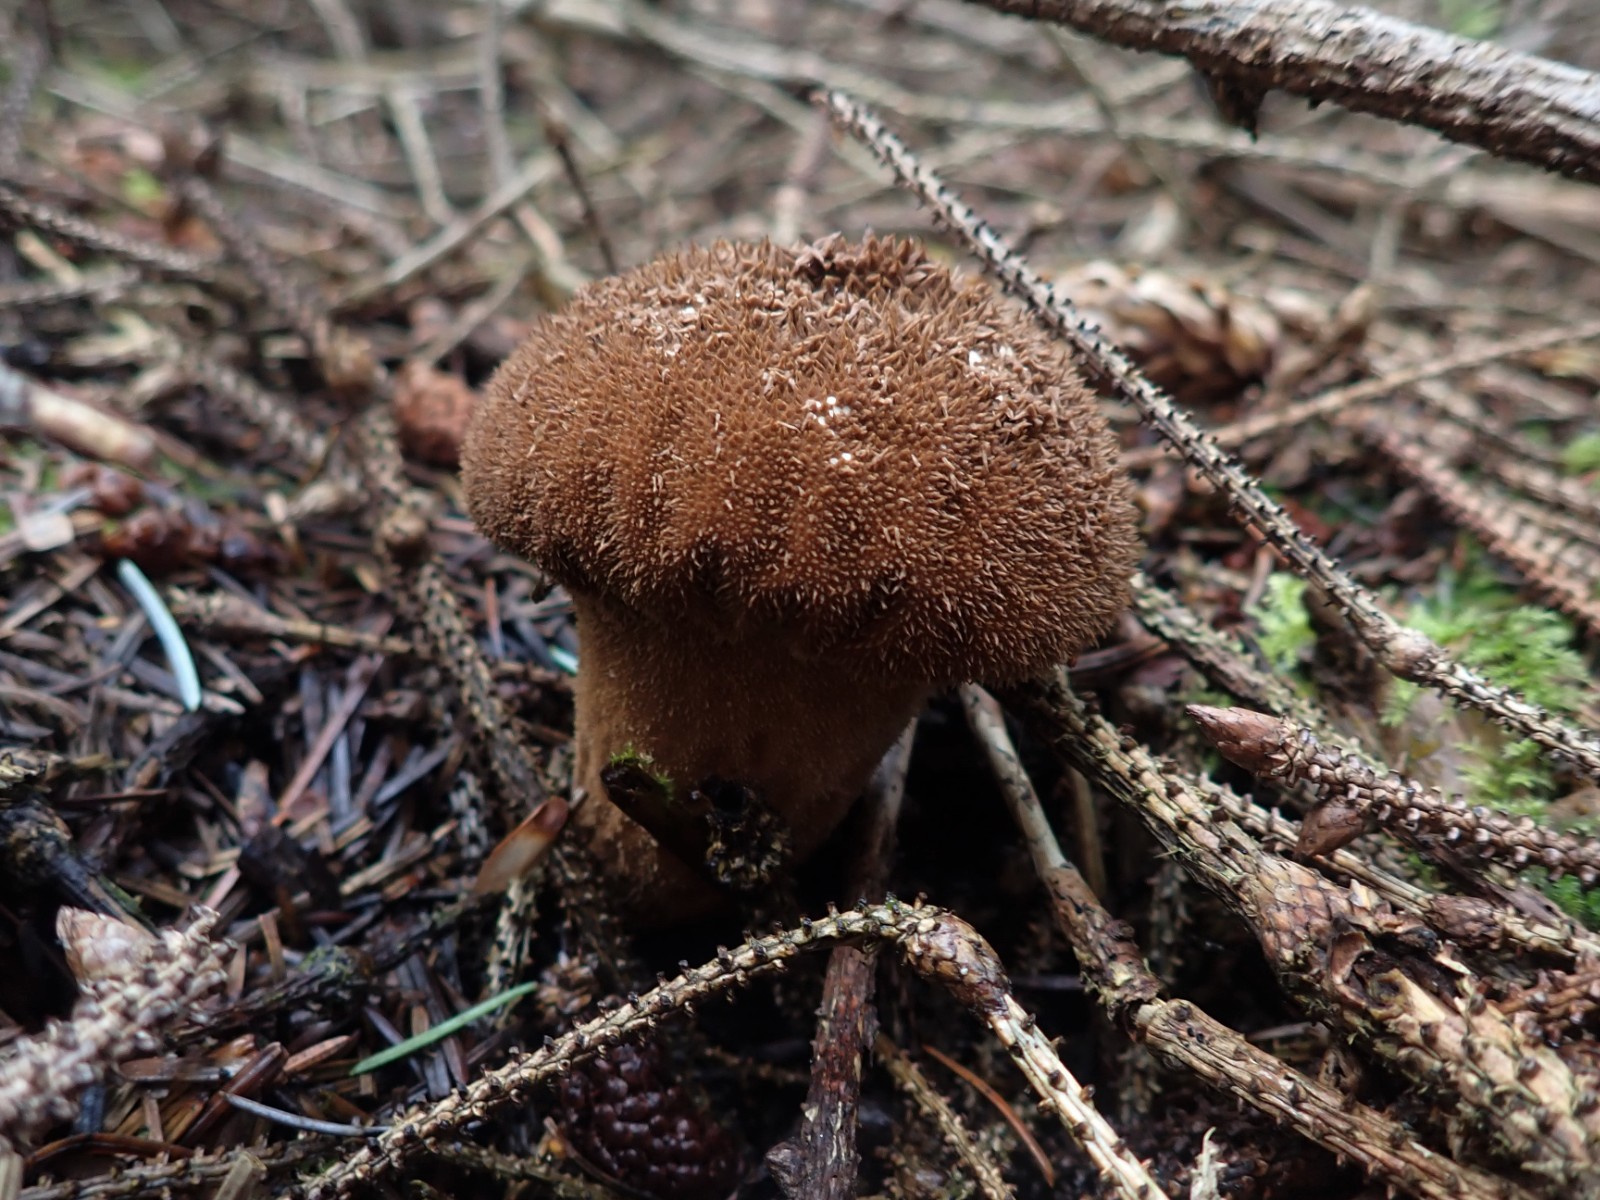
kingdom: Fungi
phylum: Basidiomycota
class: Agaricomycetes
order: Agaricales
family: Lycoperdaceae
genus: Lycoperdon
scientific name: Lycoperdon nigrescens
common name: sortagtig støvbold
